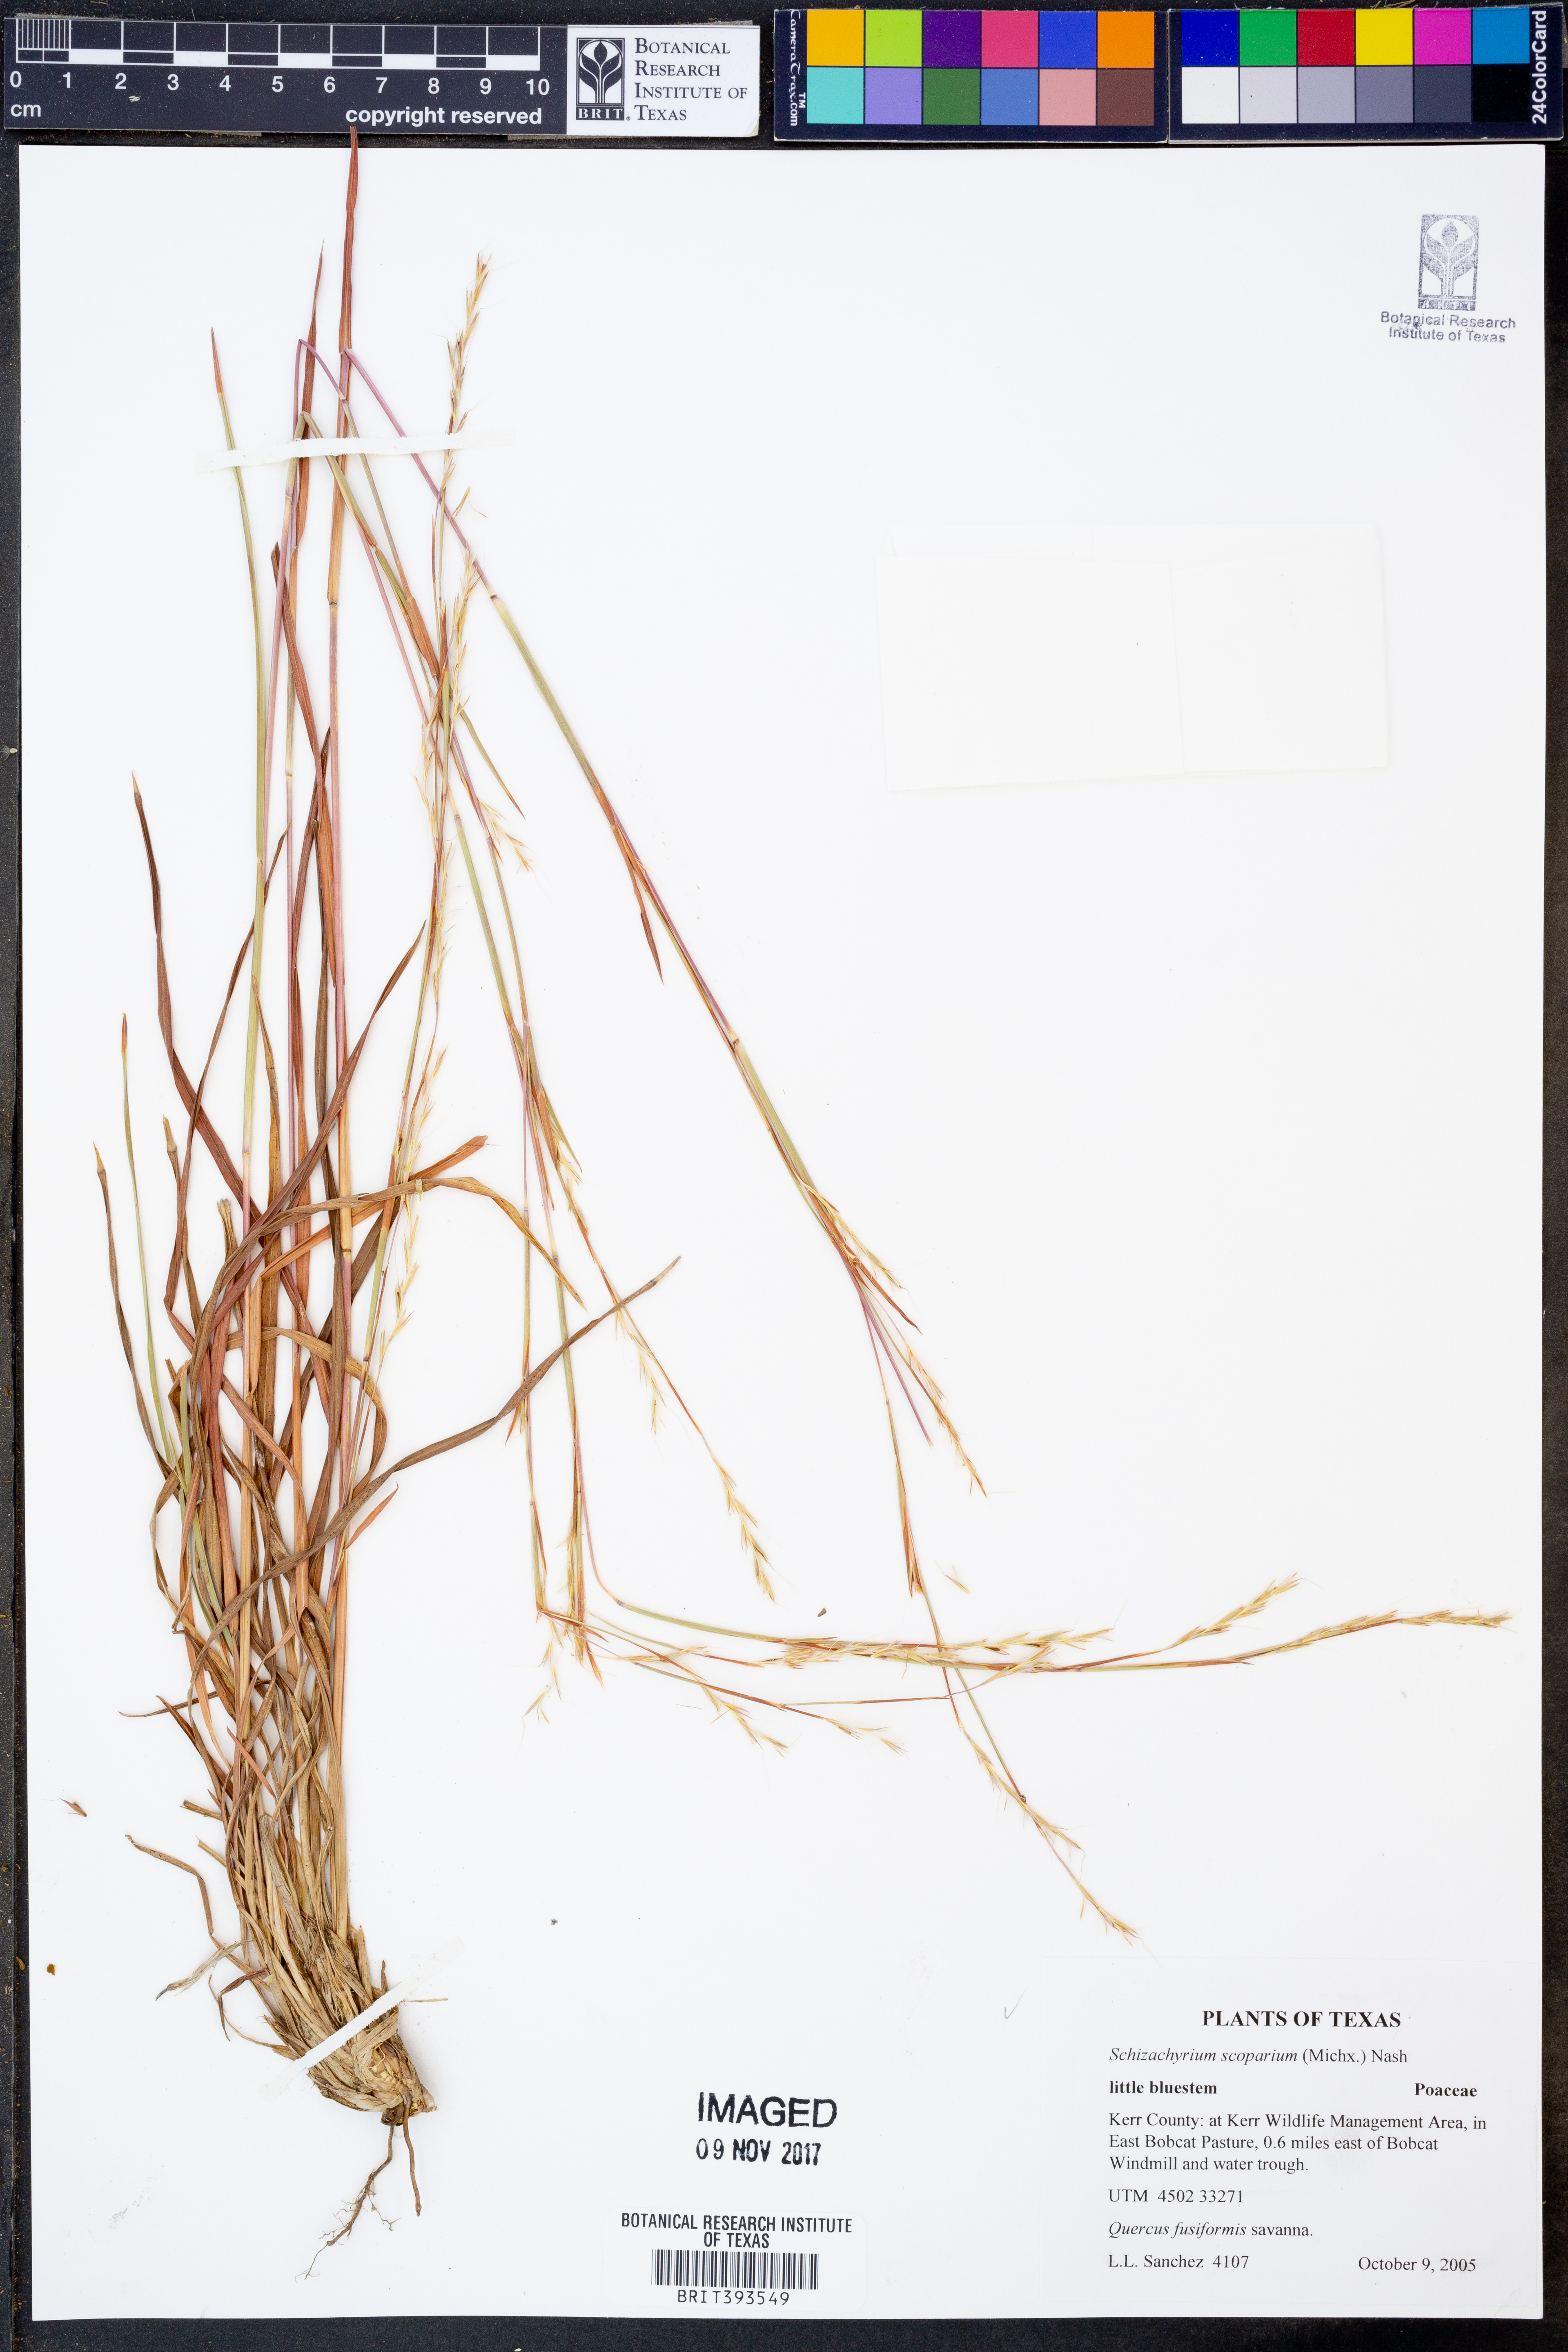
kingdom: Plantae
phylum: Tracheophyta
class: Liliopsida
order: Poales
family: Poaceae
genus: Schizachyrium
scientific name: Schizachyrium scoparium
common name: Little bluestem
